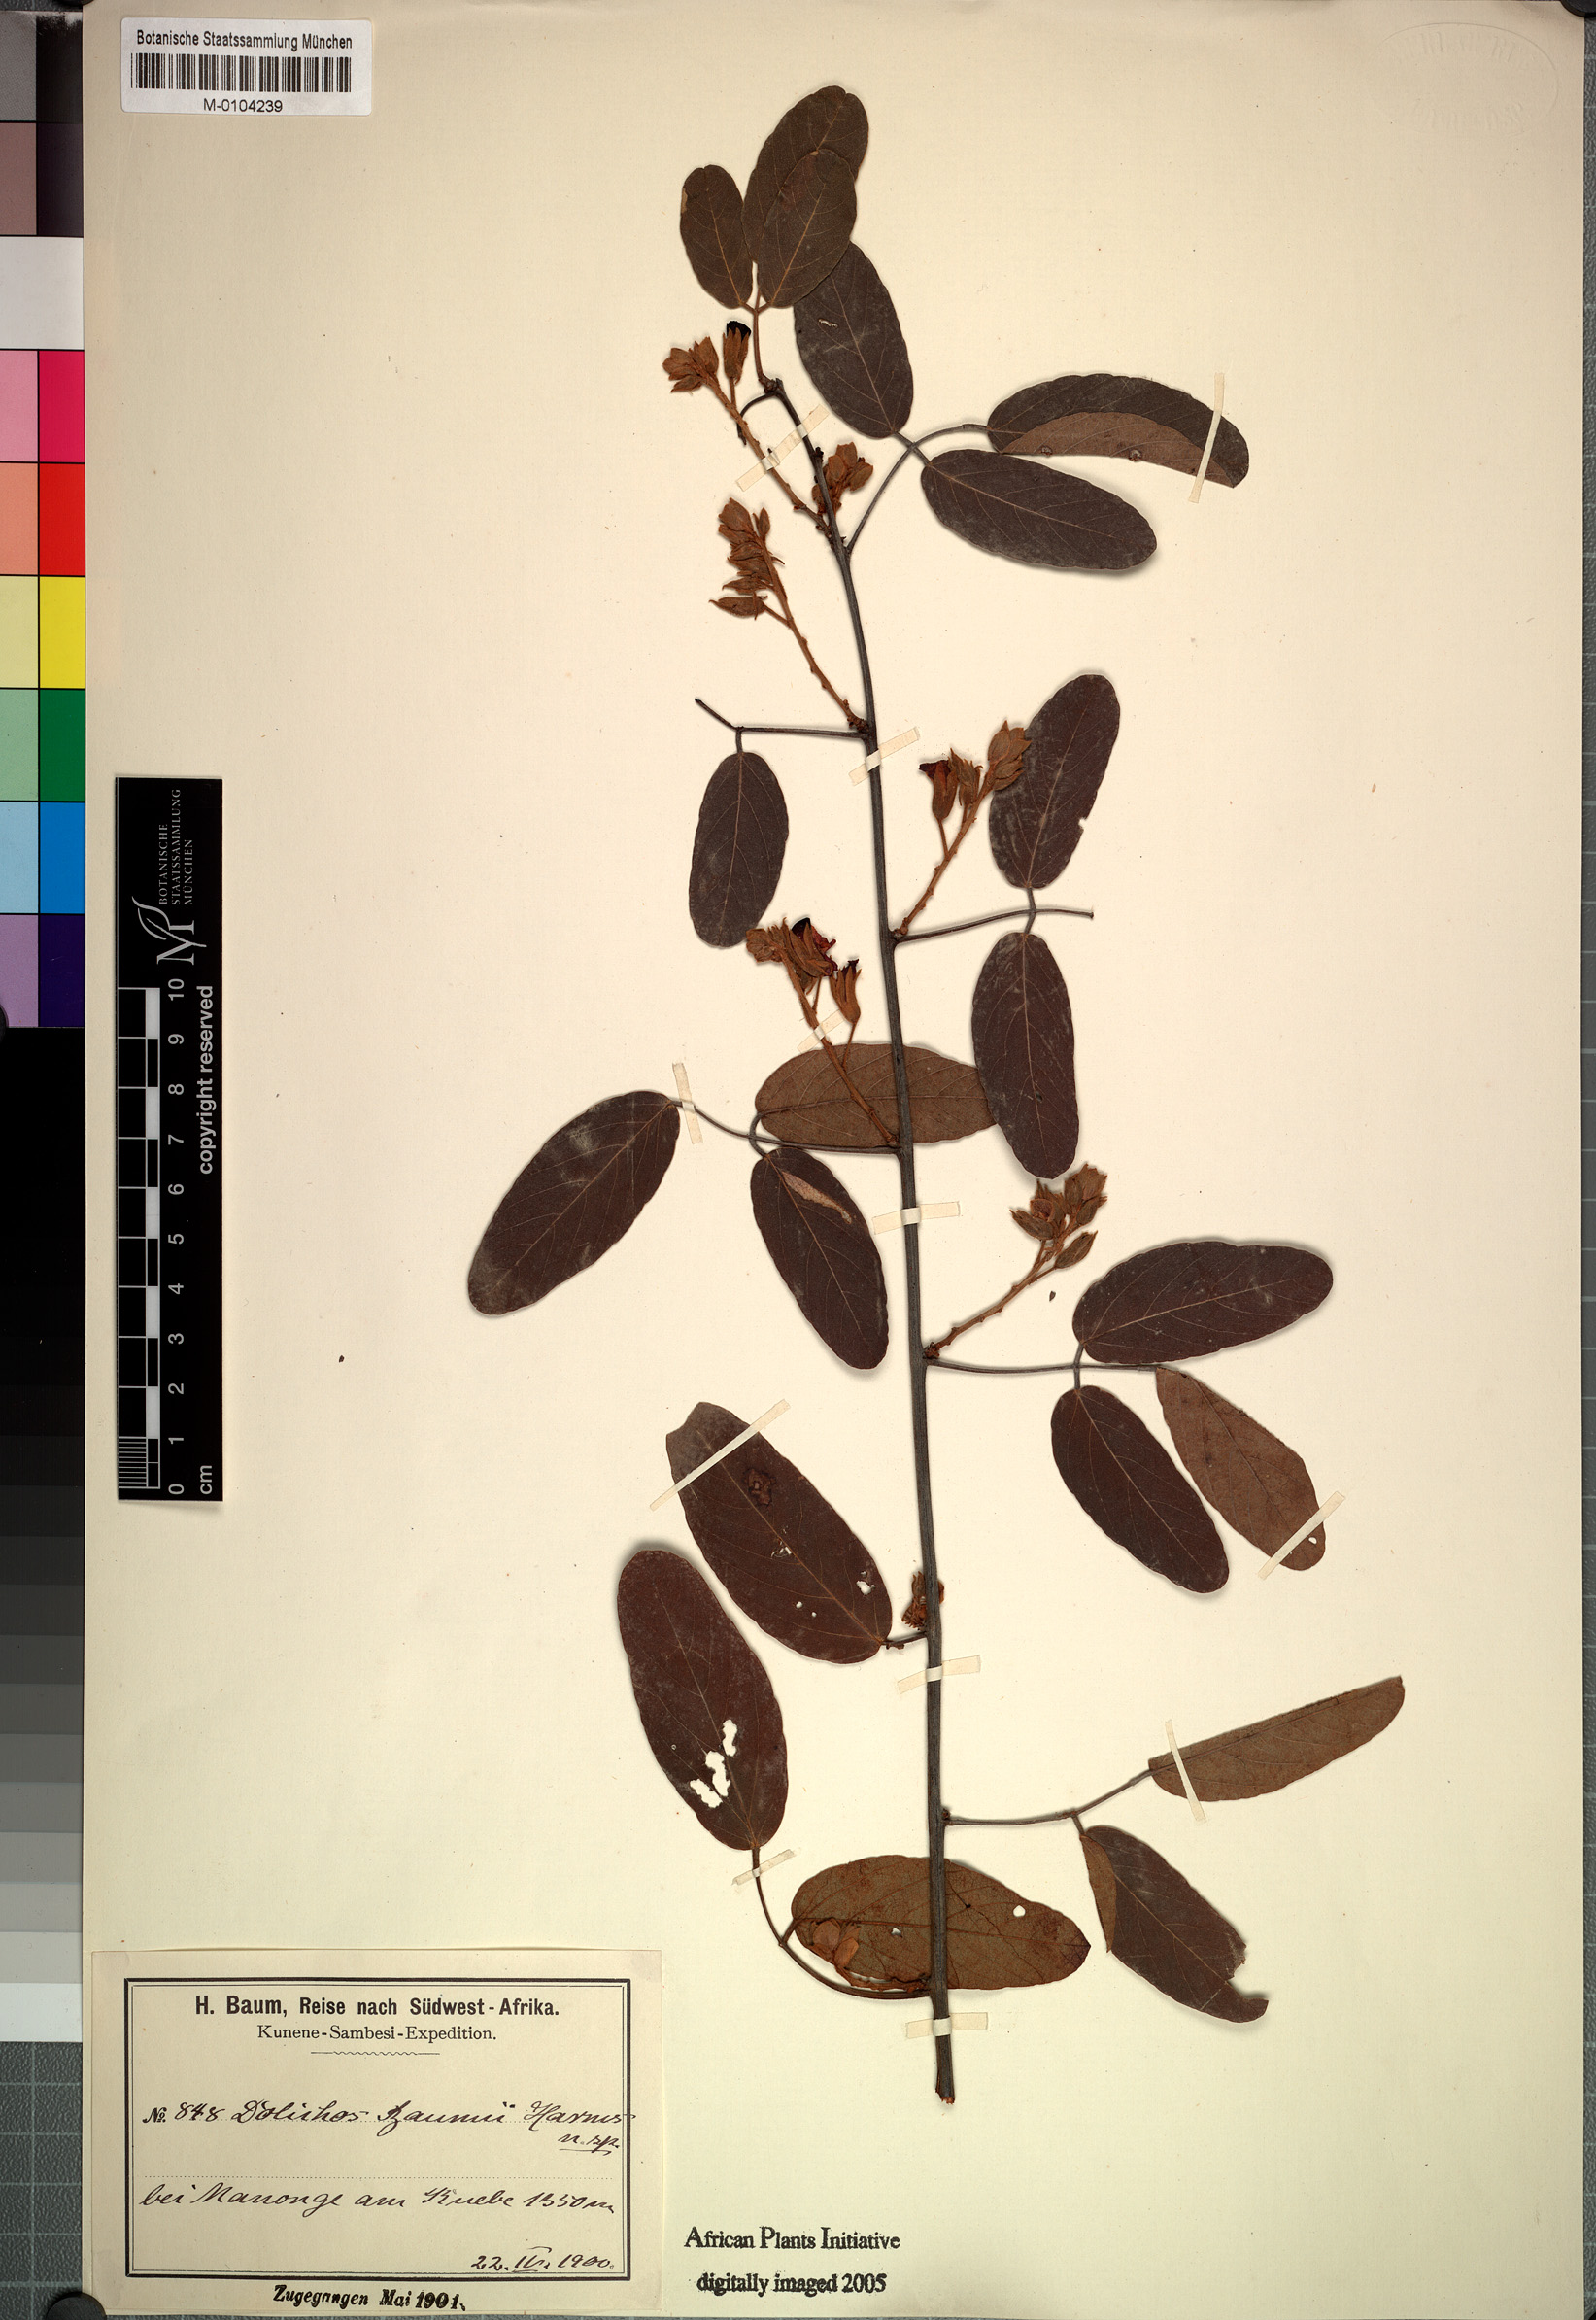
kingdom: Plantae
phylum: Tracheophyta
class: Magnoliopsida
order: Fabales
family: Fabaceae
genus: Adenodolichos
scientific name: Adenodolichos baumii
